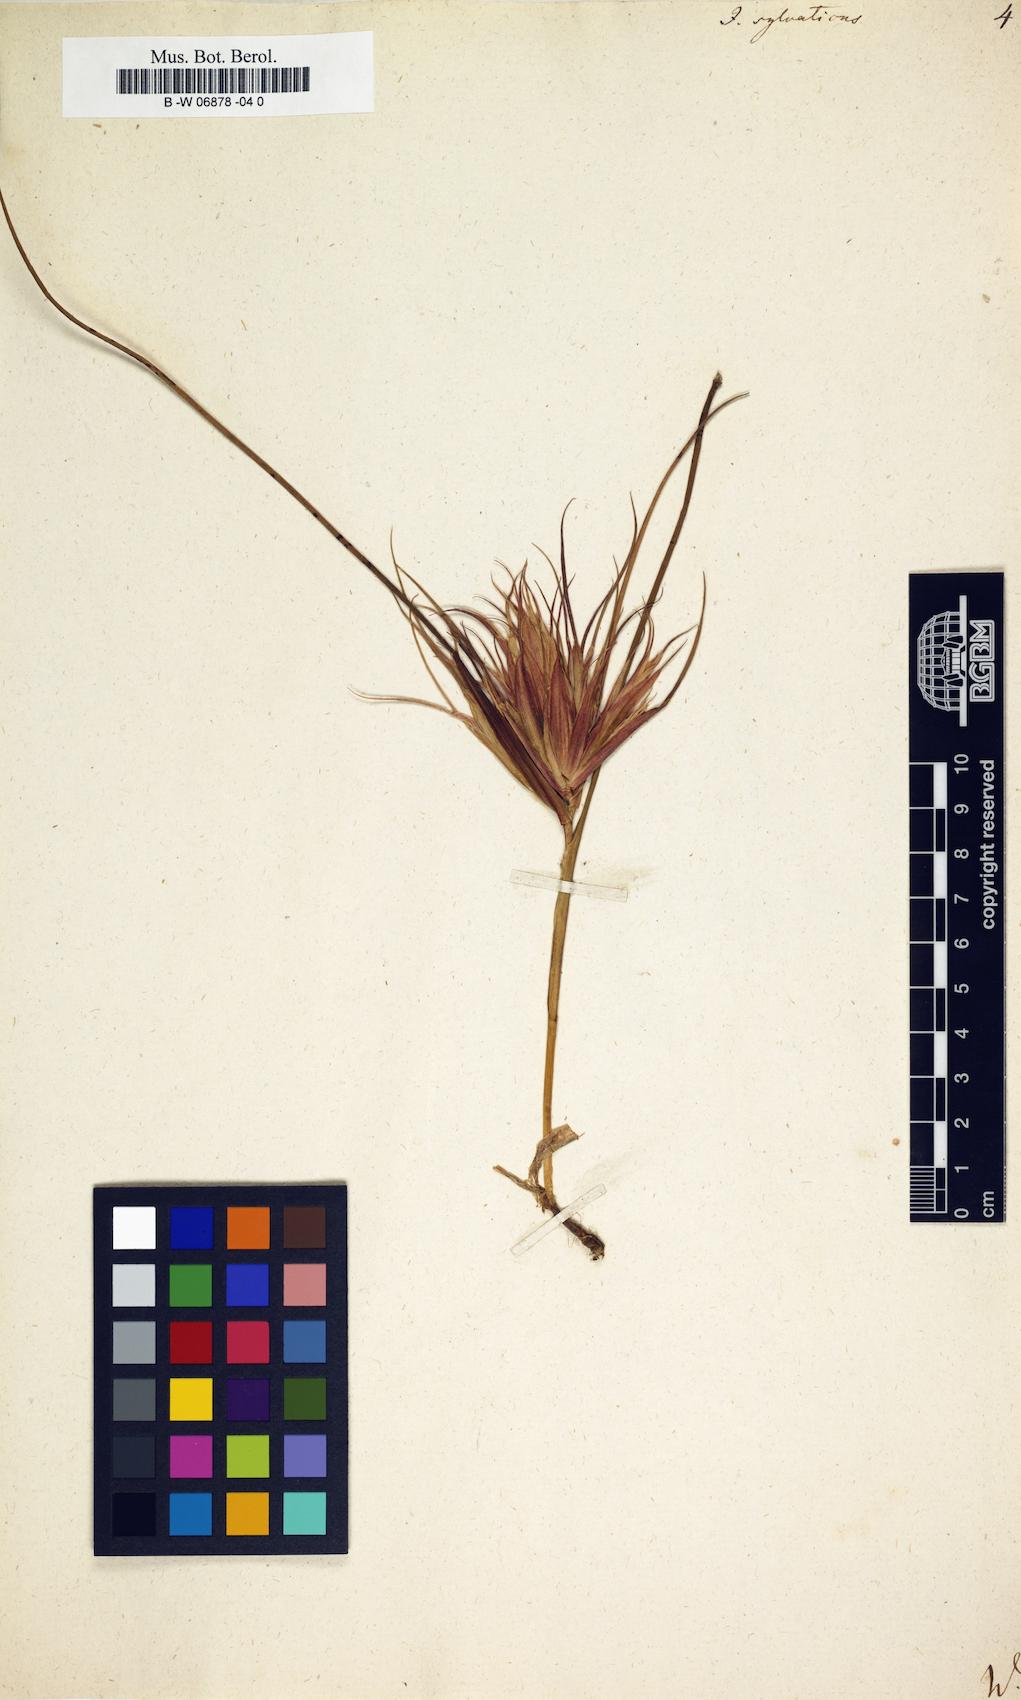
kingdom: Plantae
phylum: Tracheophyta
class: Liliopsida
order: Poales
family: Juncaceae
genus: Luzula
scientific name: Luzula sylvatica
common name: Great wood-rush
